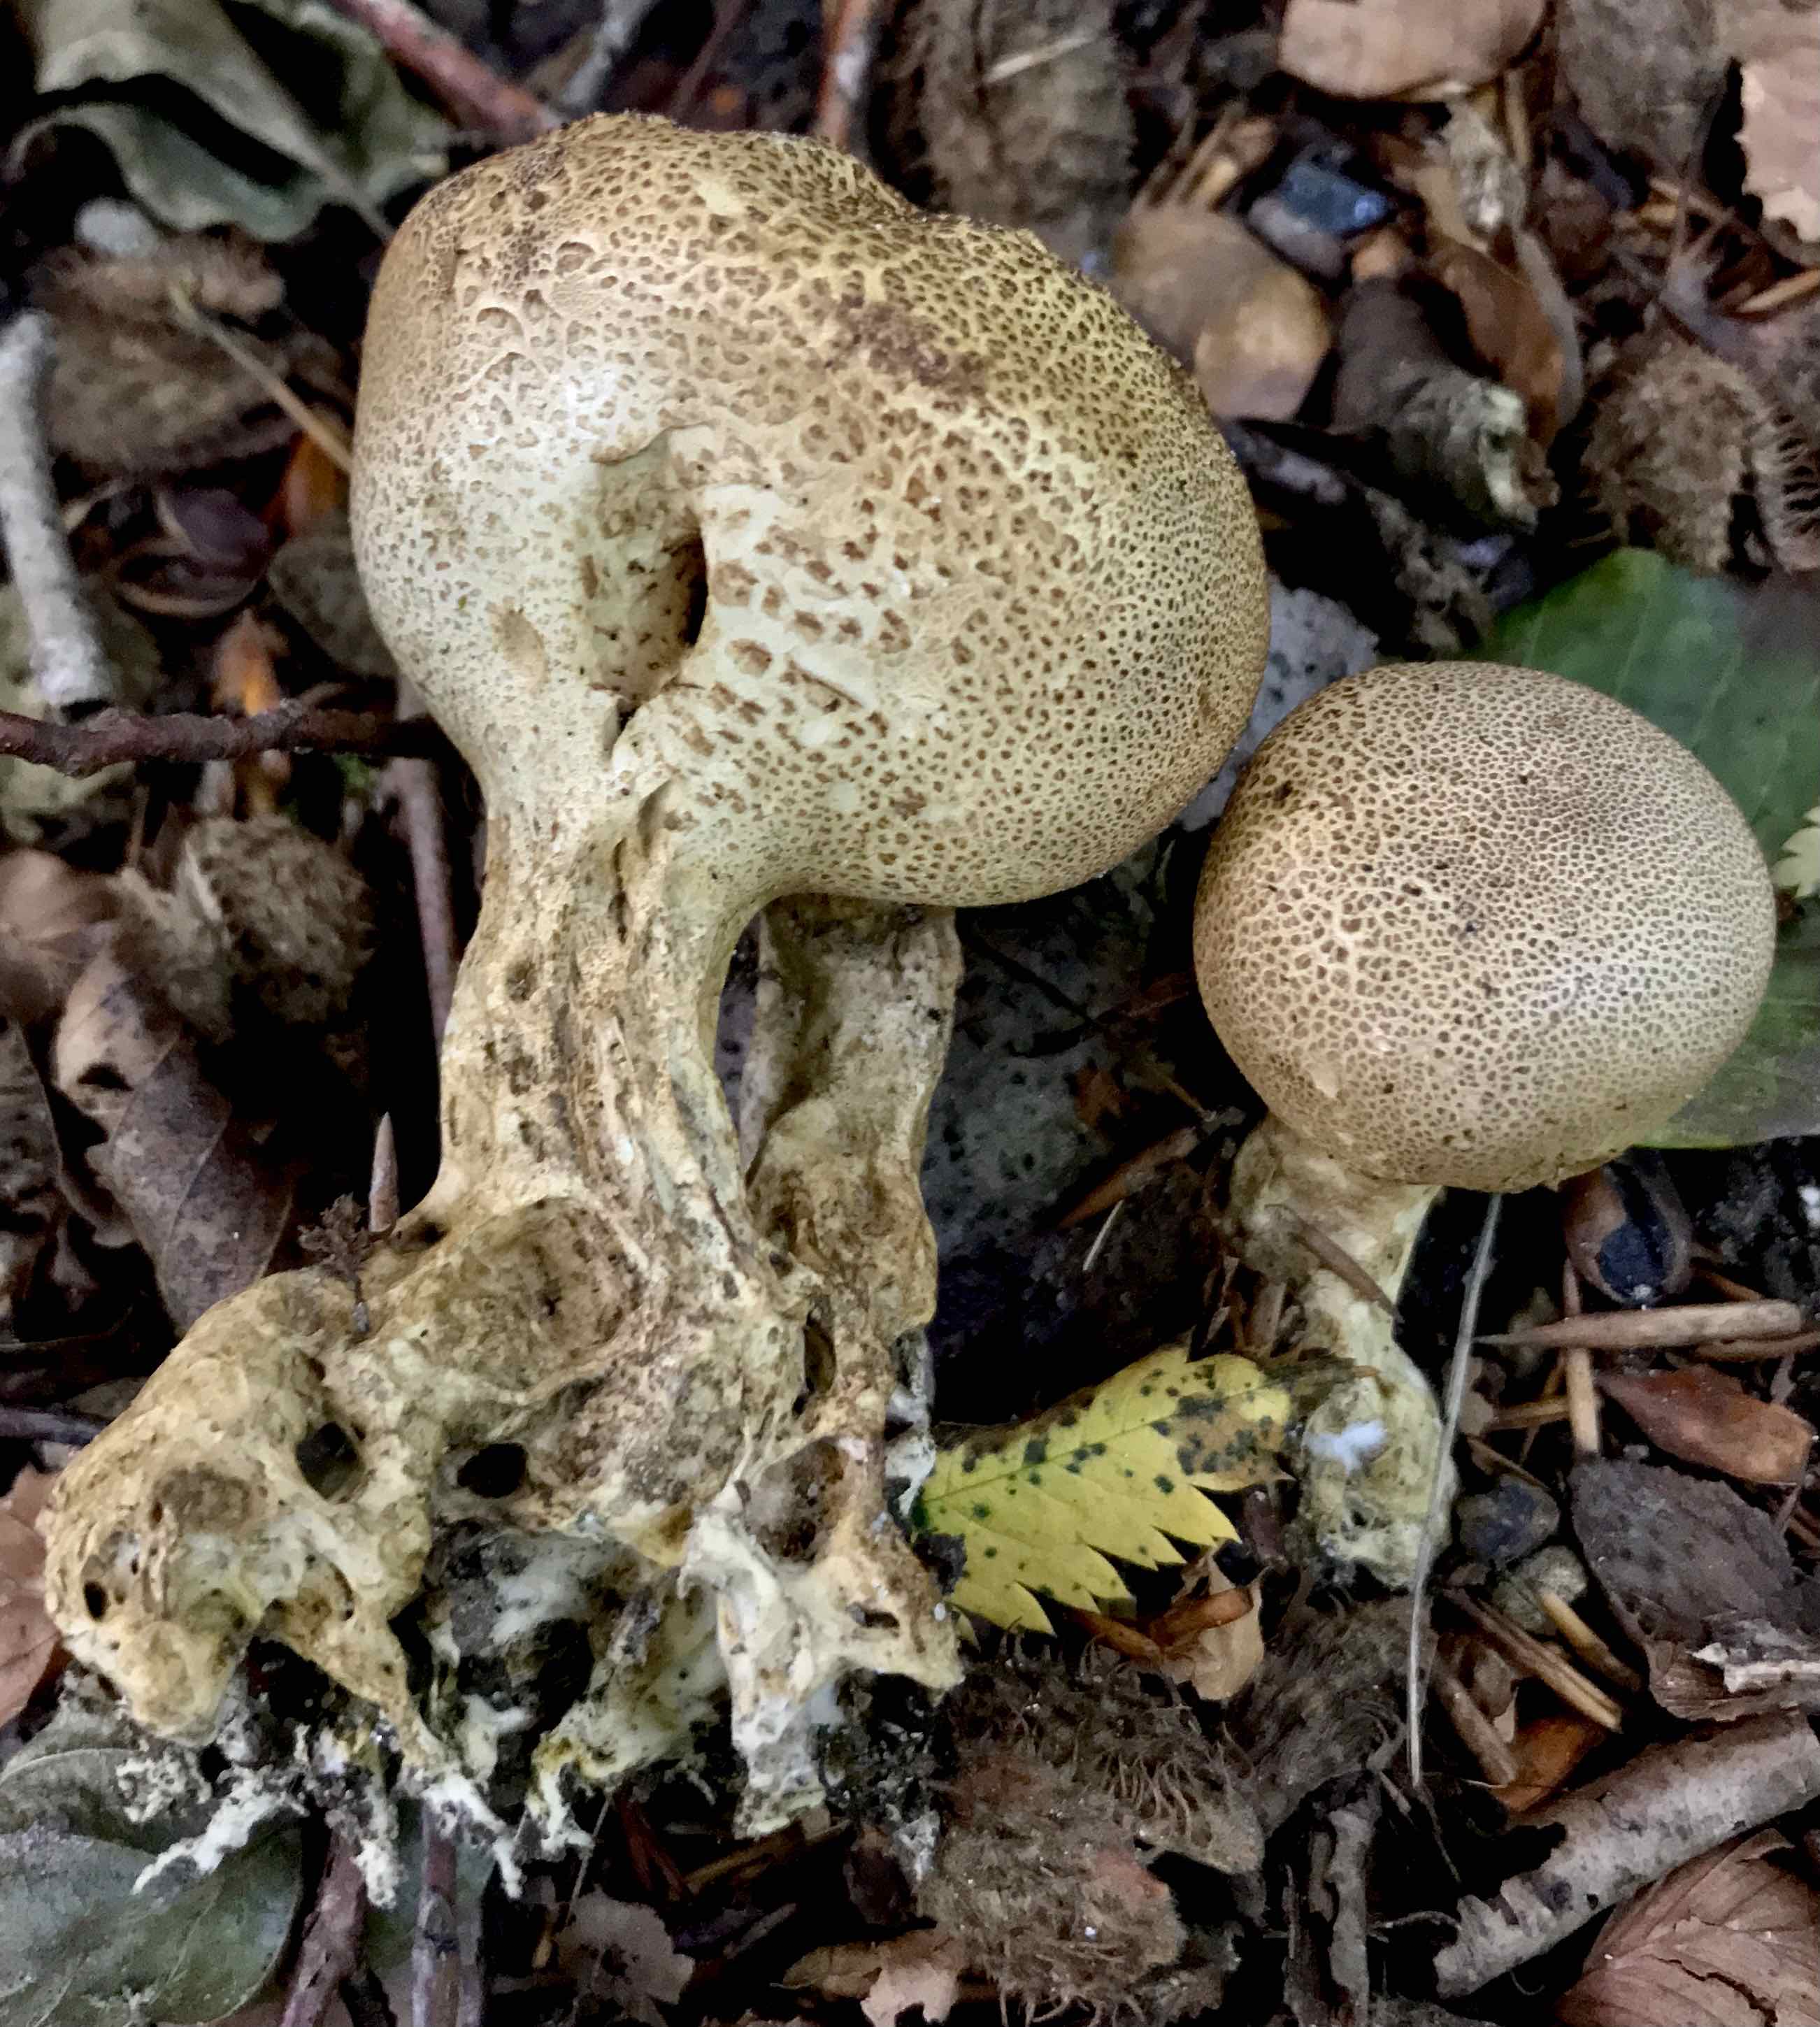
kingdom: Fungi
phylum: Basidiomycota
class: Agaricomycetes
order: Boletales
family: Sclerodermataceae
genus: Scleroderma
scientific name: Scleroderma verrucosum
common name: stilket bruskbold
